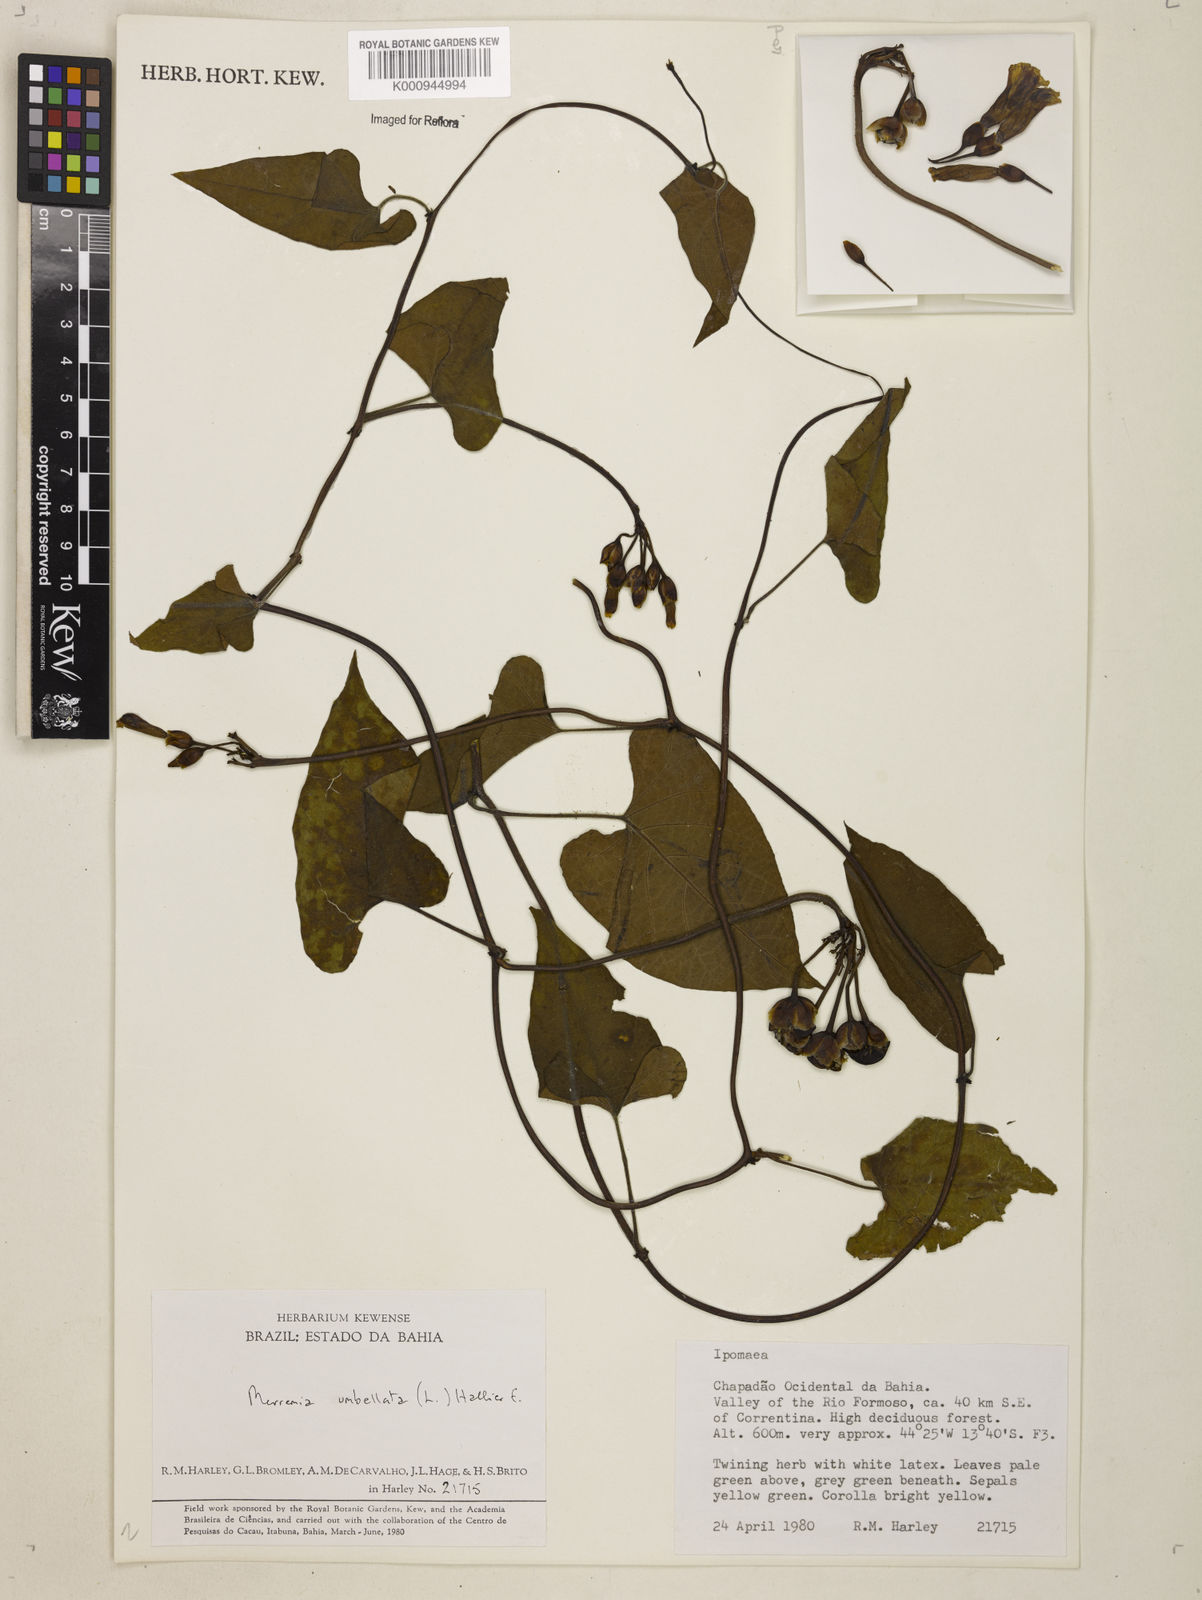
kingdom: Plantae
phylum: Tracheophyta
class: Magnoliopsida
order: Solanales
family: Convolvulaceae
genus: Camonea
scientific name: Camonea umbellata
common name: Hogvine
